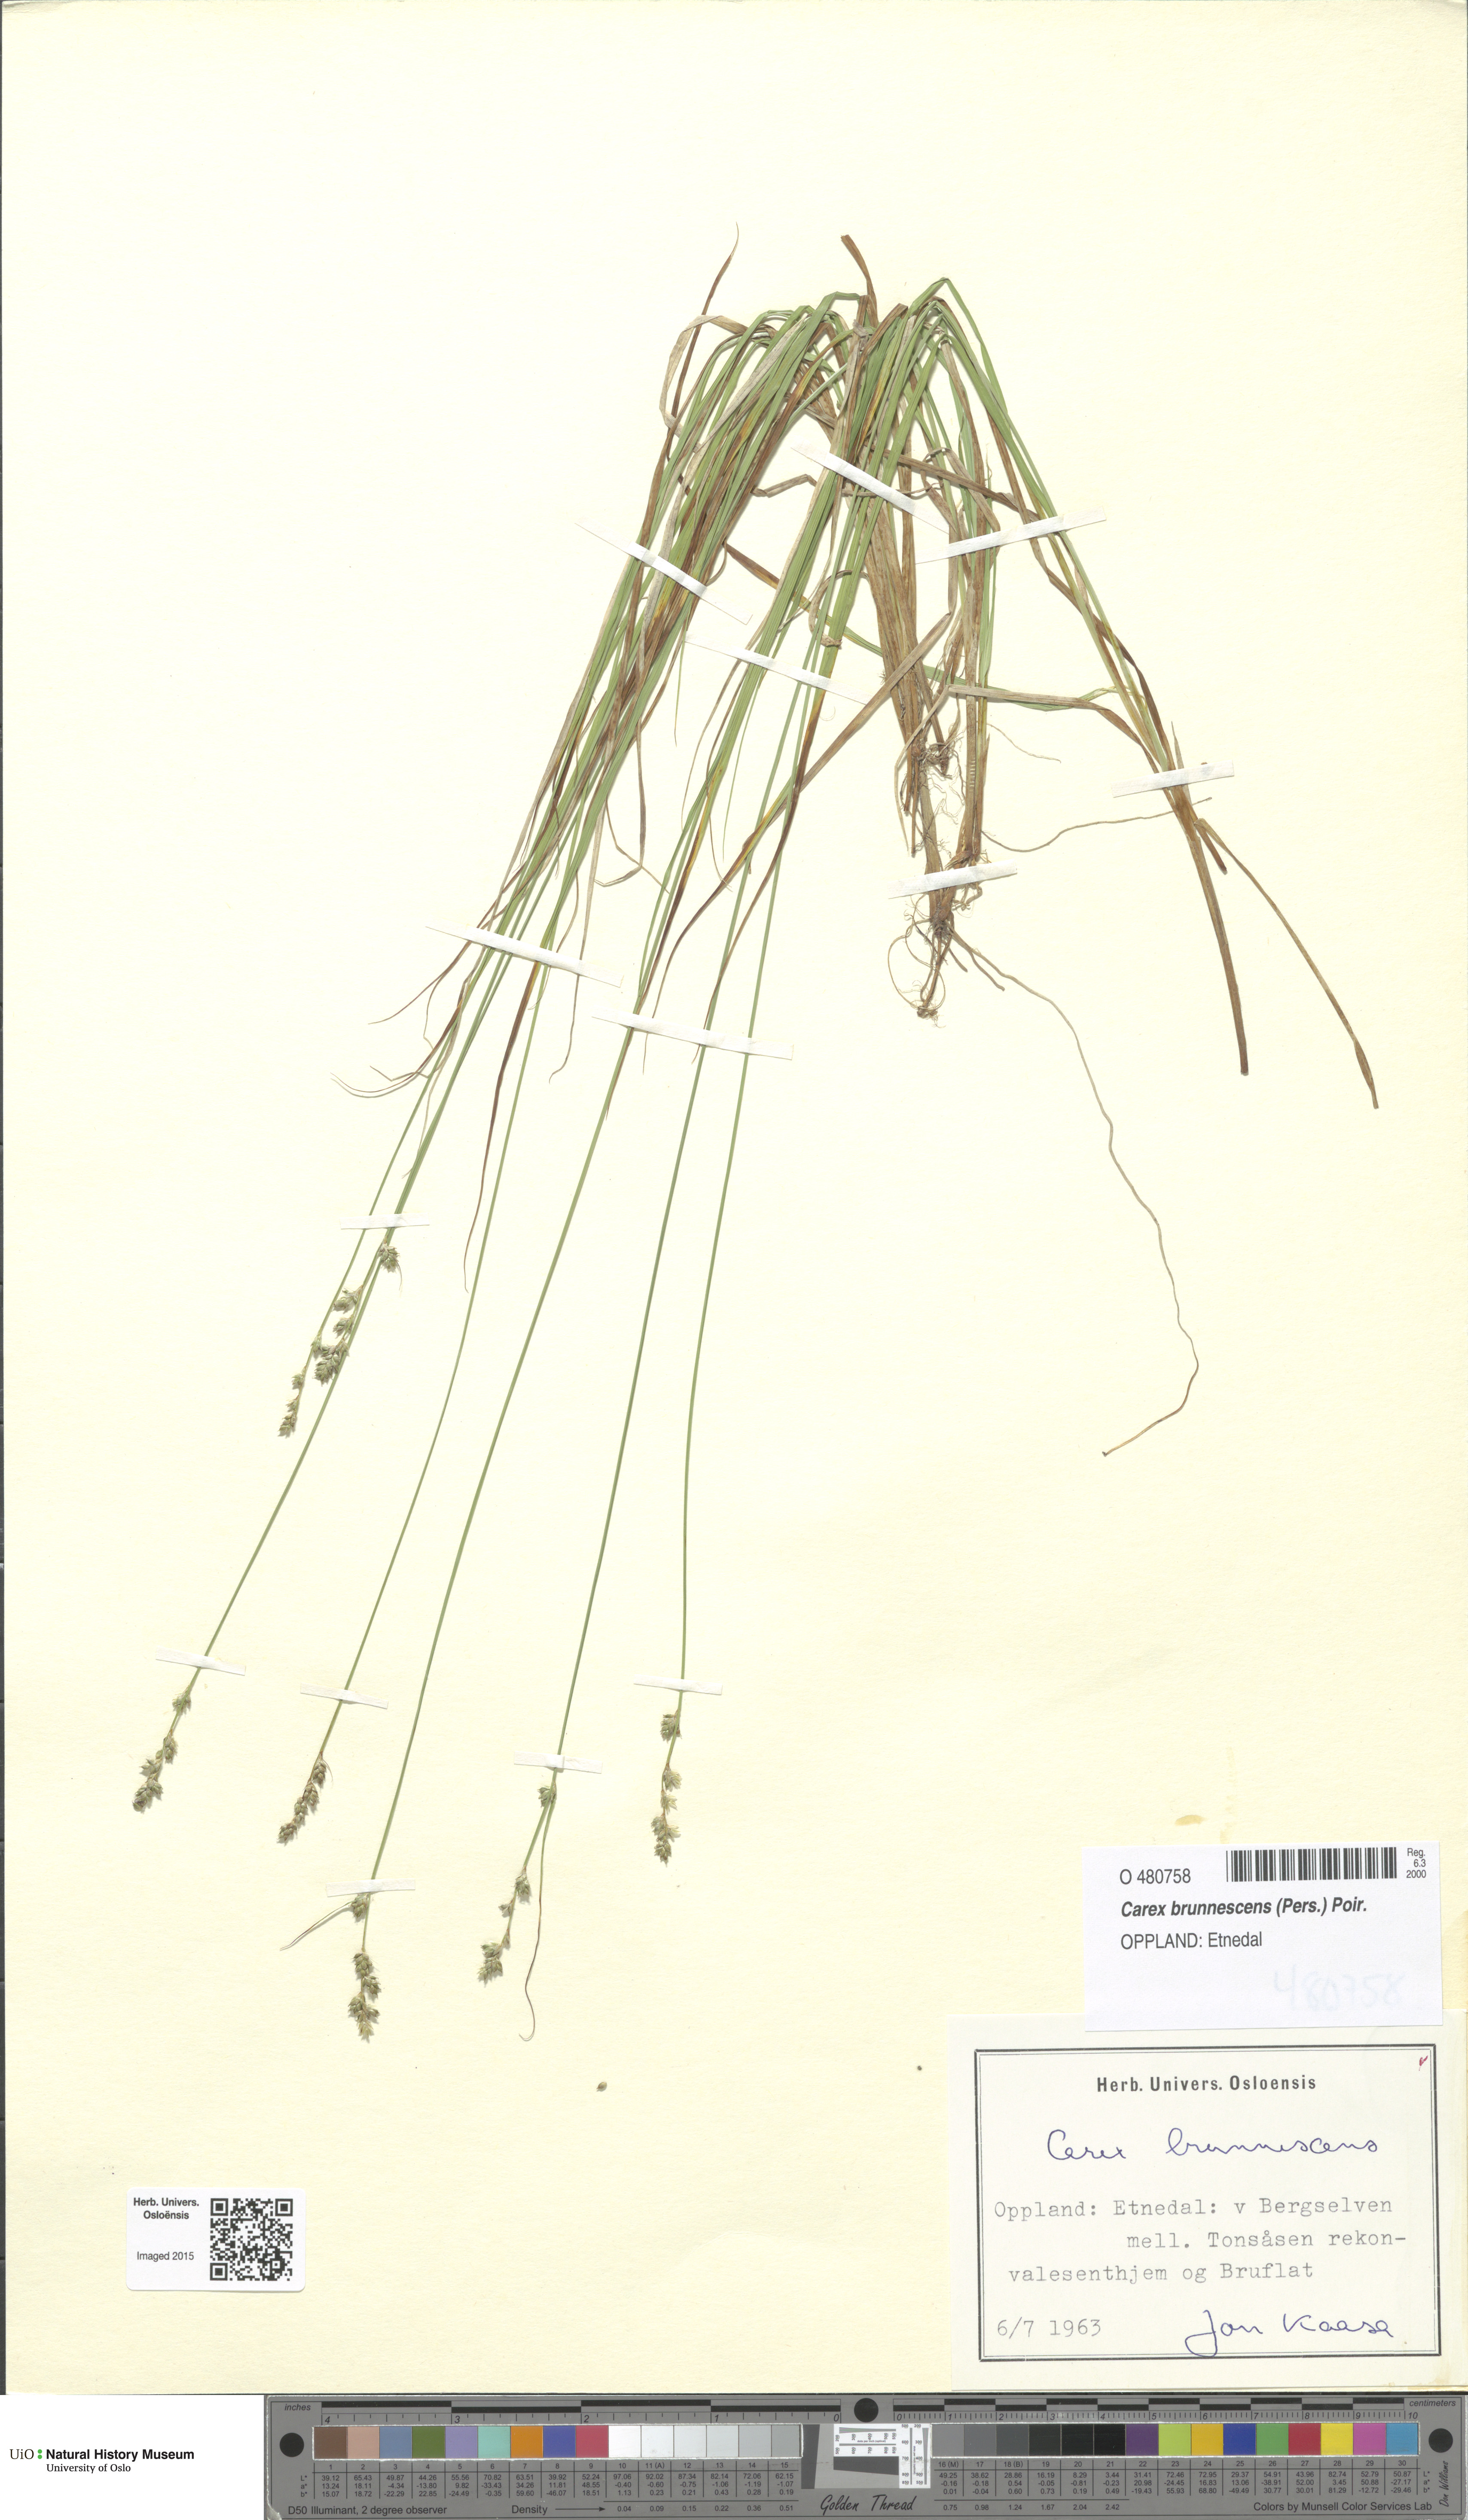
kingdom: Plantae
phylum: Tracheophyta
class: Liliopsida
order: Poales
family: Cyperaceae
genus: Carex
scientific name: Carex brunnescens
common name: Brown sedge
